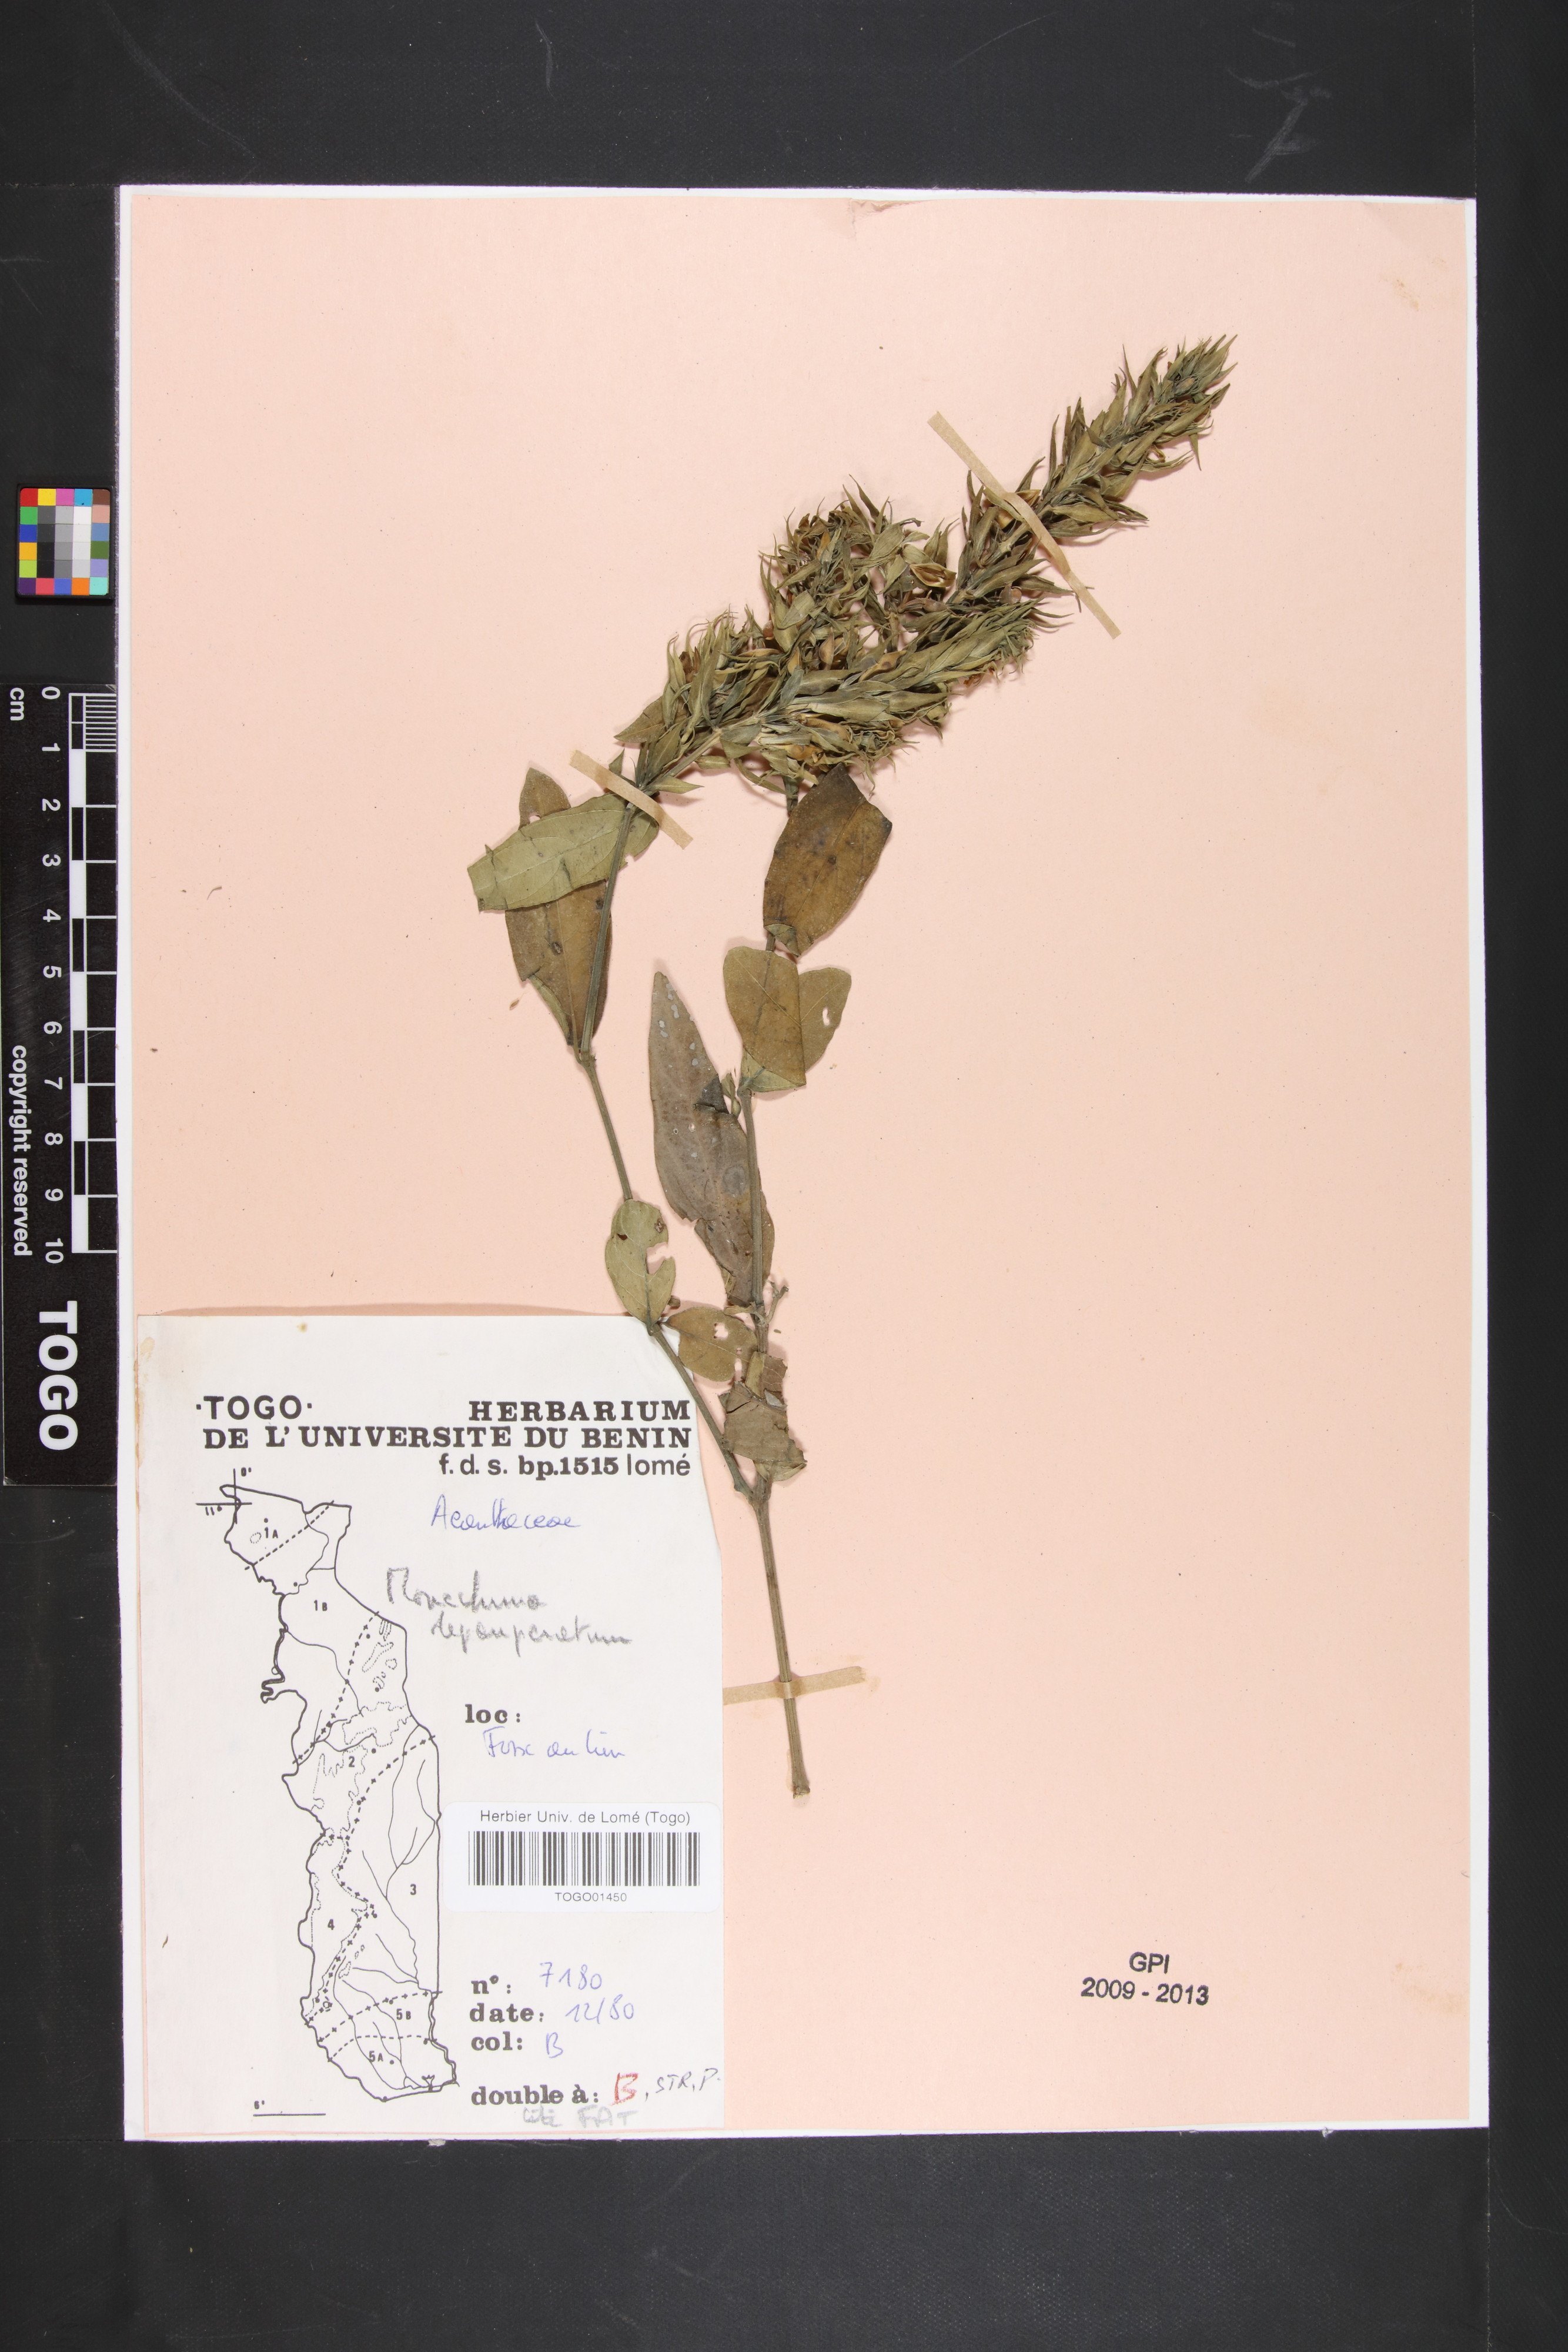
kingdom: Plantae
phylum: Tracheophyta
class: Magnoliopsida
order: Lamiales
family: Acanthaceae
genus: Monechma
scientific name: Monechma depauperatum
